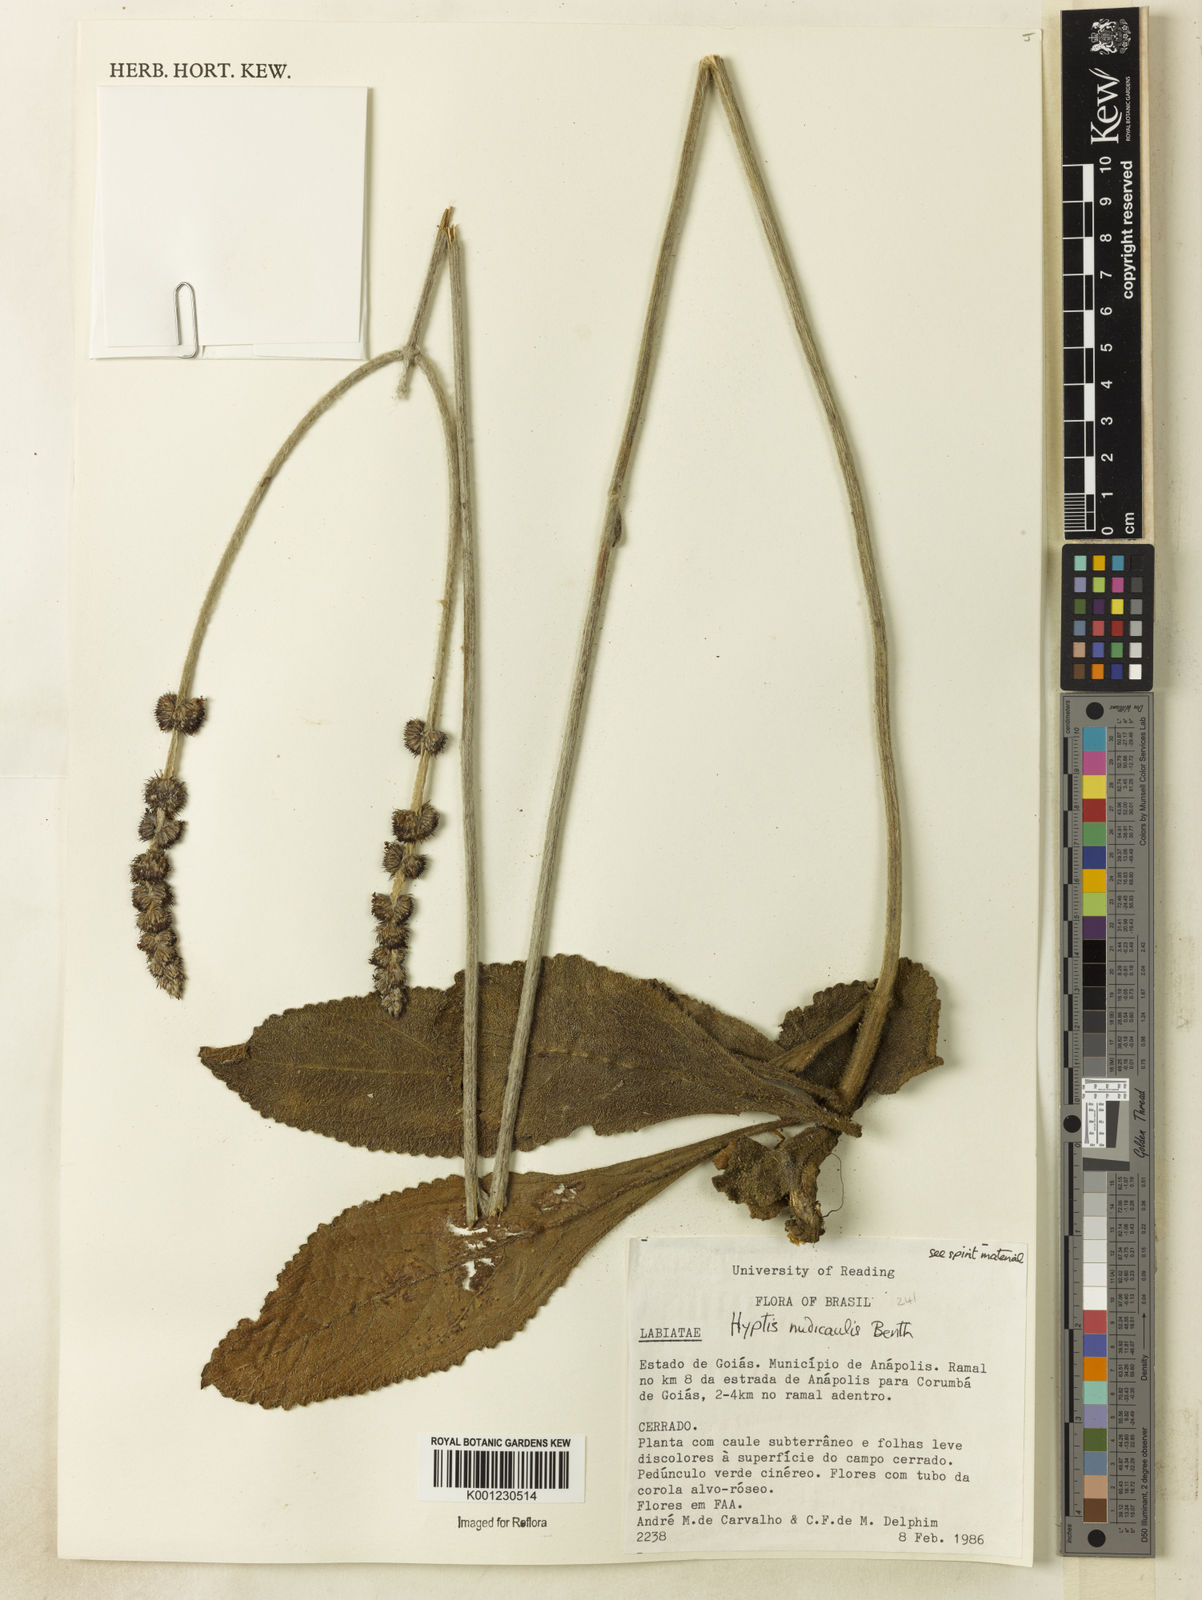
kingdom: Plantae
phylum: Tracheophyta
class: Magnoliopsida
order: Lamiales
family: Lamiaceae
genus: Hyptis
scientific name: Hyptis nudicaulis
